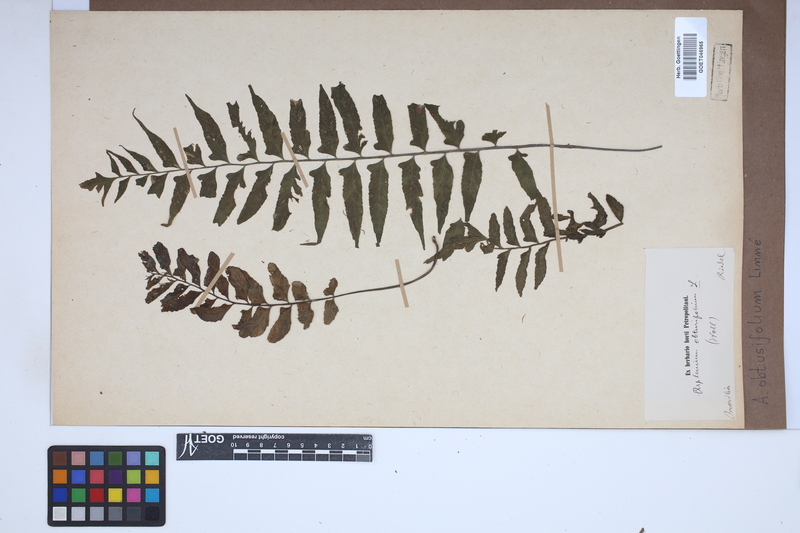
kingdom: Plantae
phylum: Tracheophyta
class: Polypodiopsida
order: Polypodiales
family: Aspleniaceae
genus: Hymenasplenium
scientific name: Hymenasplenium obtusifolium
